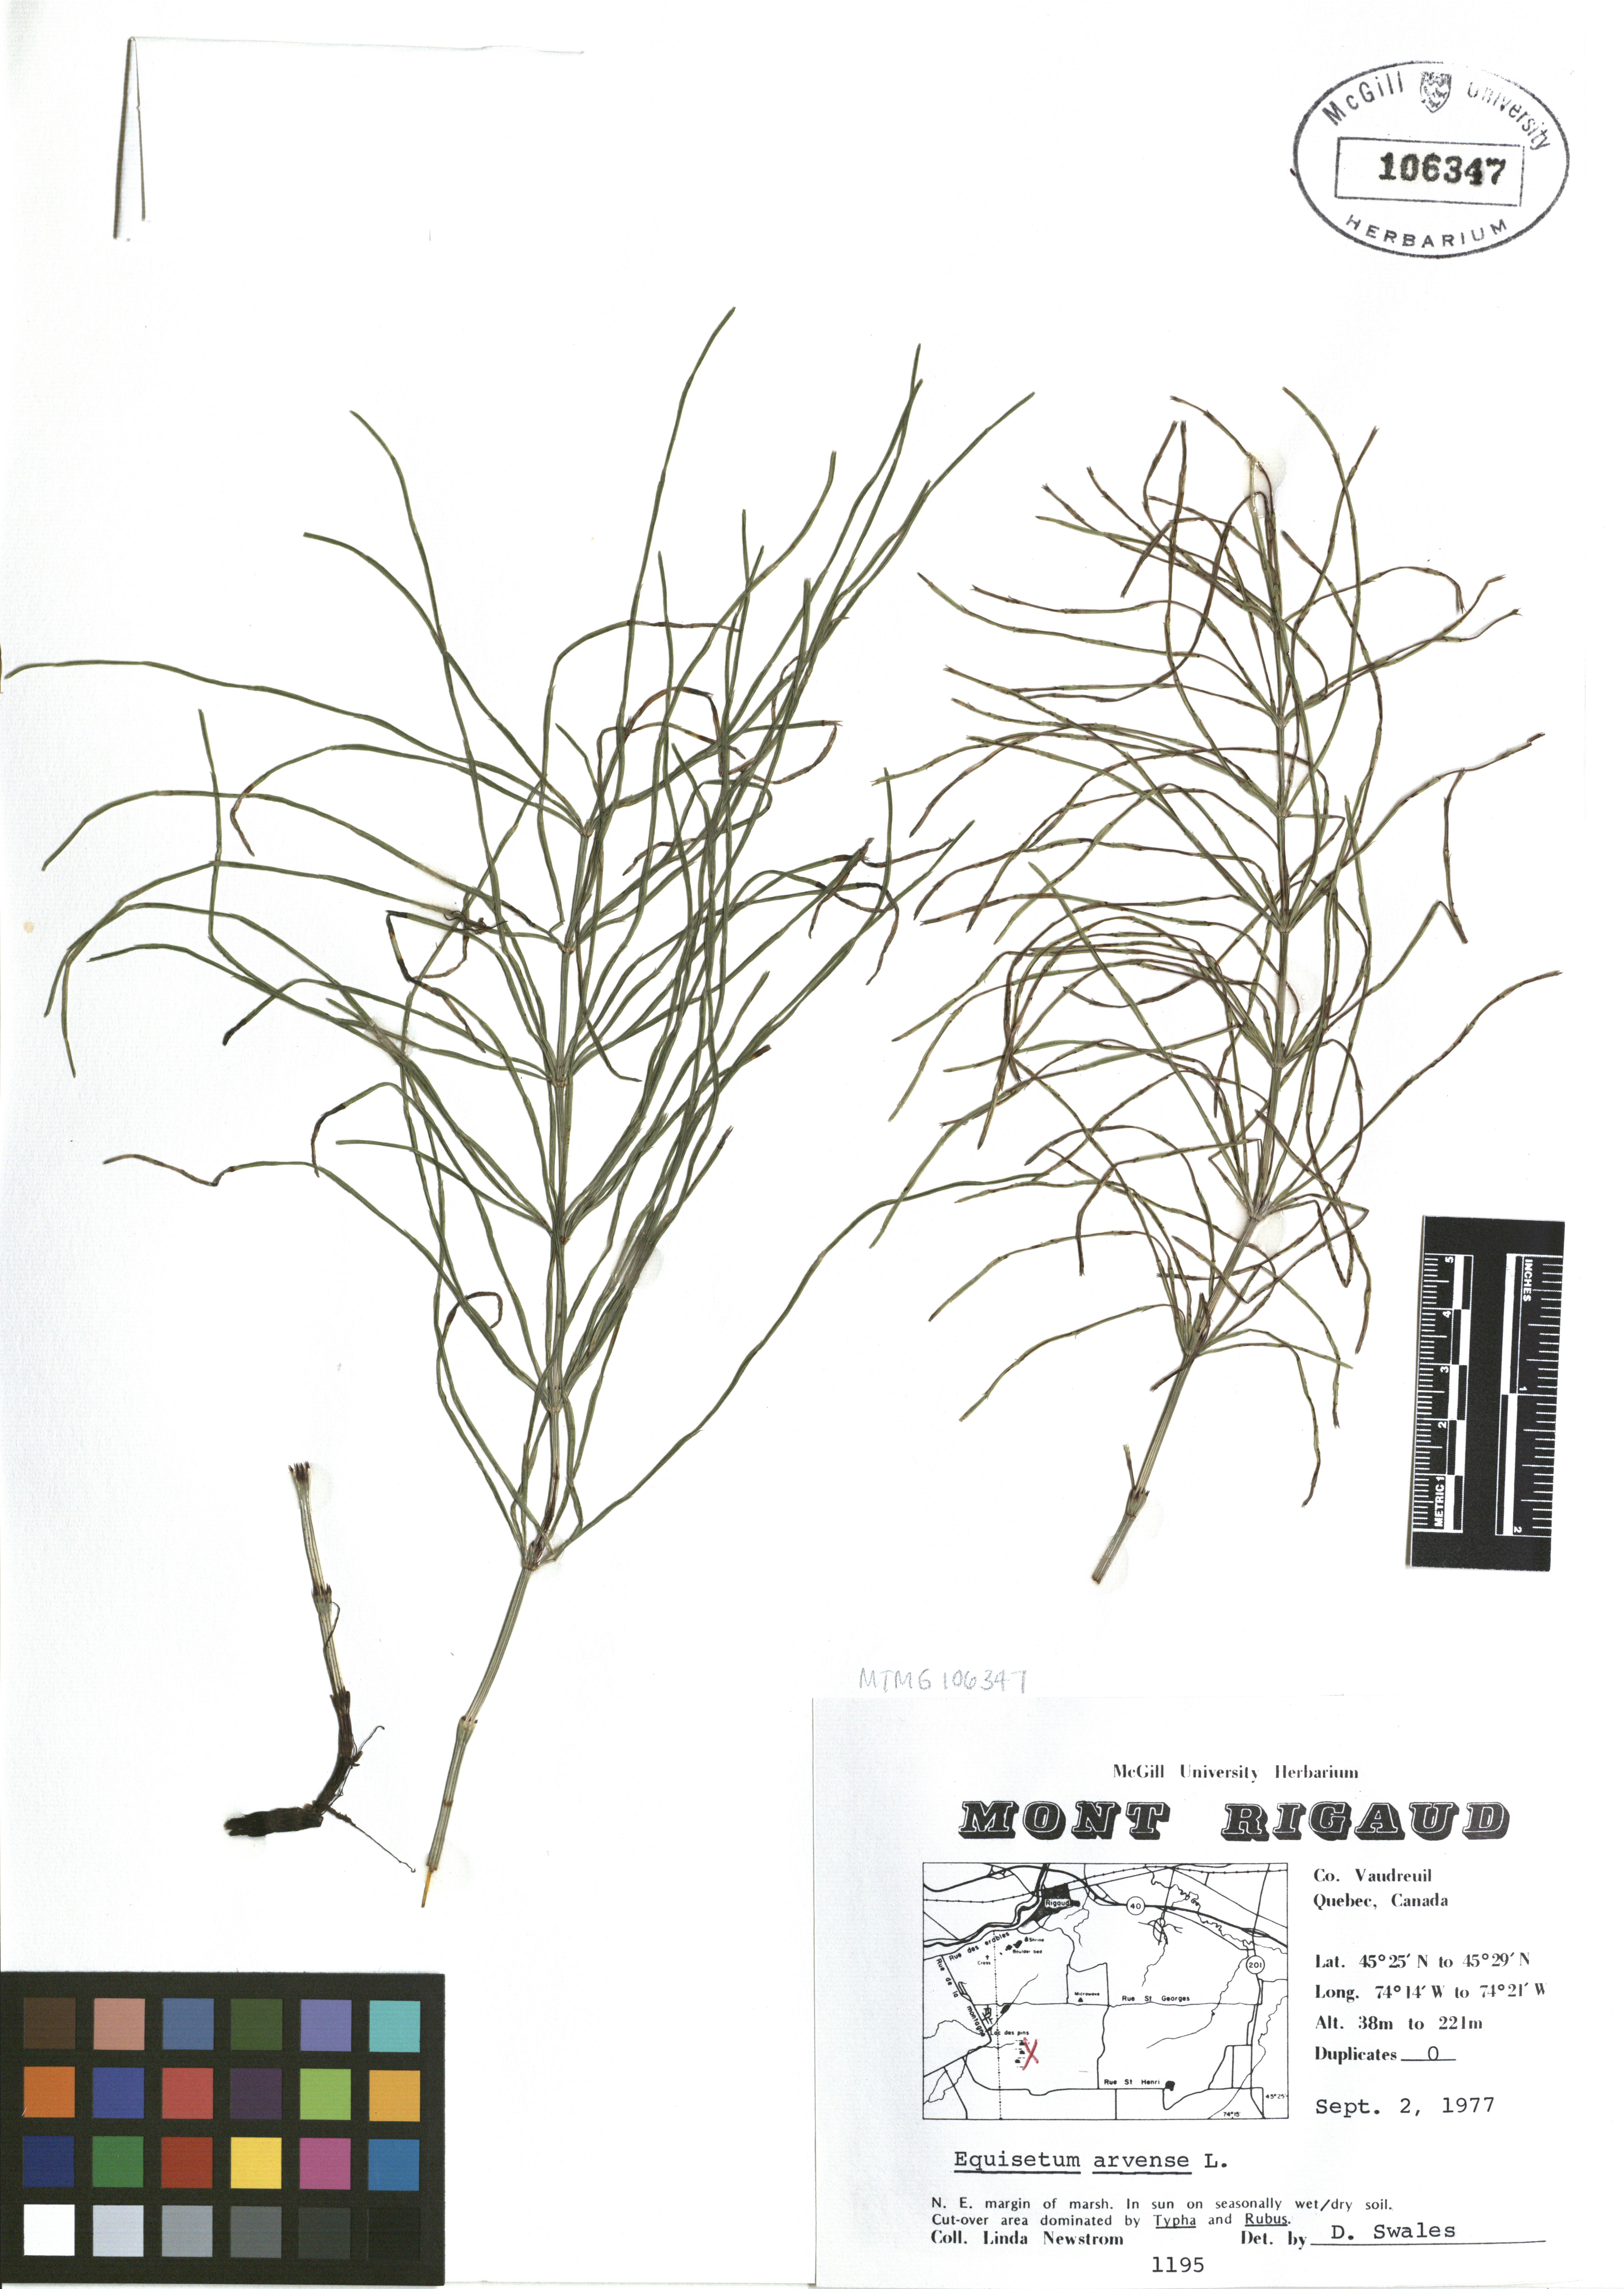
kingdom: Plantae
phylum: Tracheophyta
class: Polypodiopsida
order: Equisetales
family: Equisetaceae
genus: Equisetum
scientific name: Equisetum arvense
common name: Field horsetail
